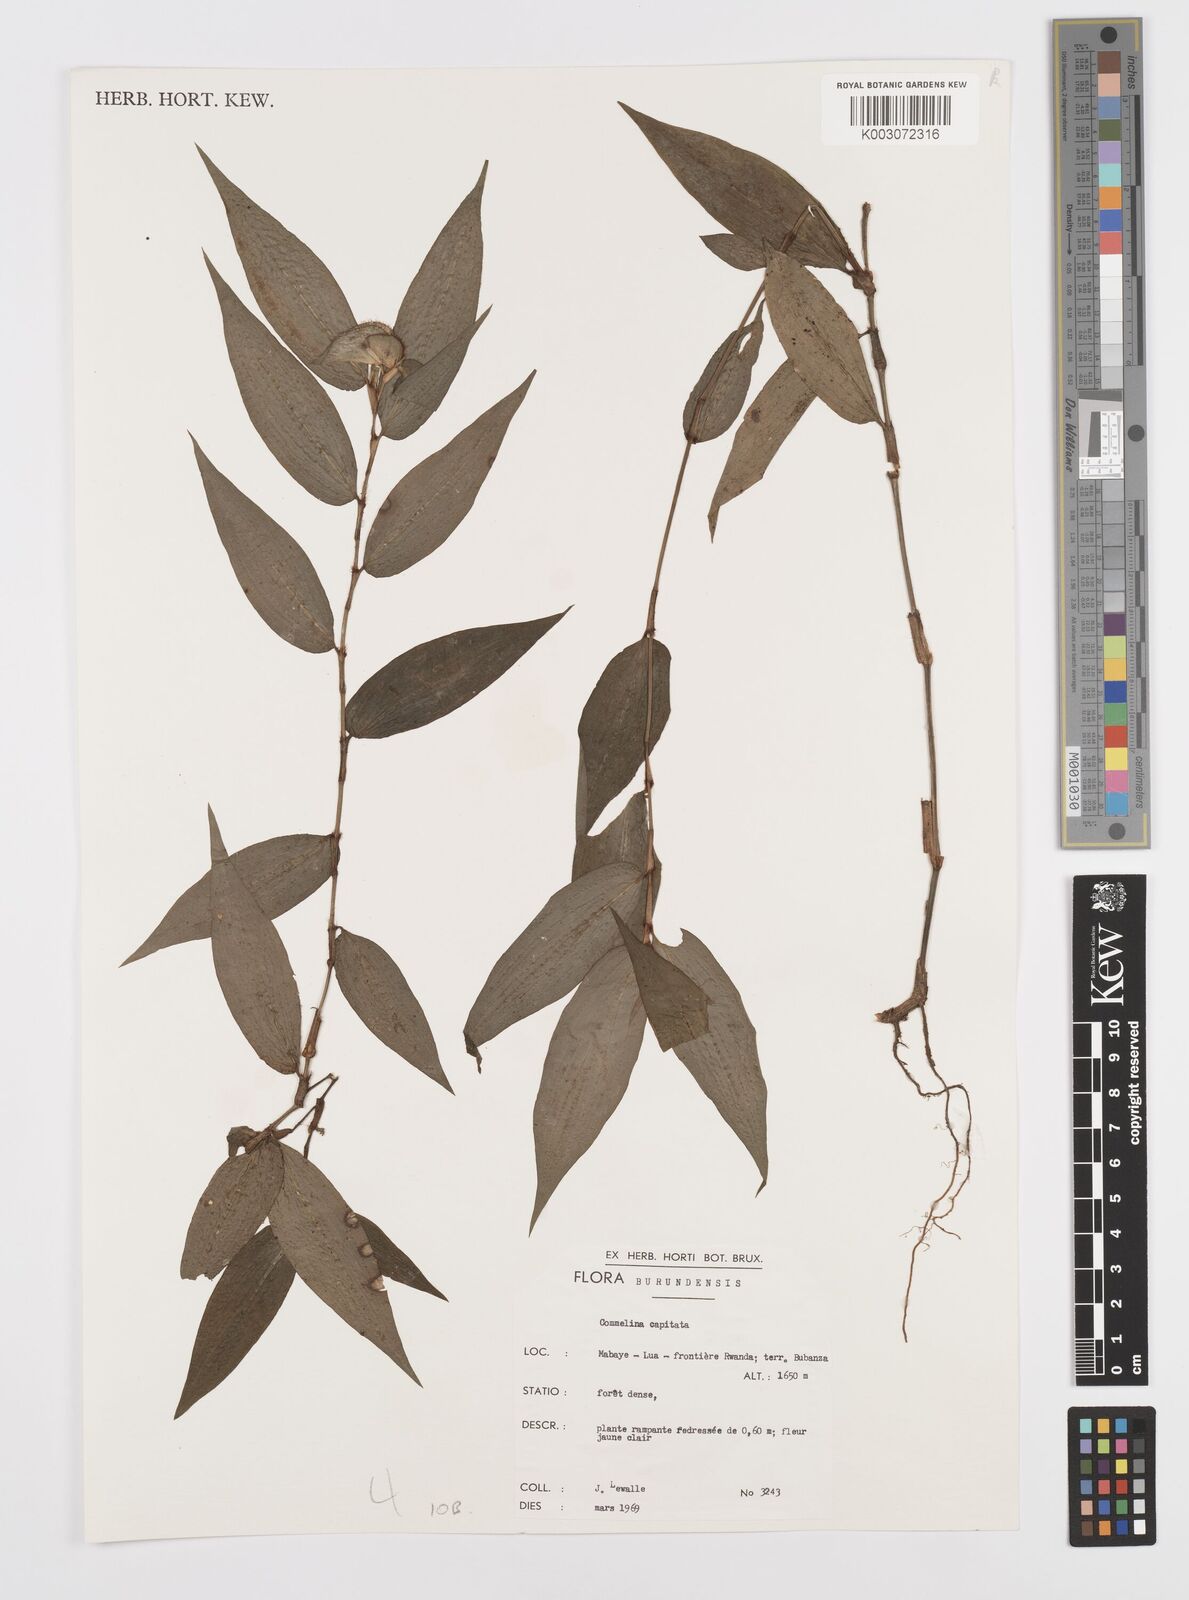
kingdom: Plantae
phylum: Tracheophyta
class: Liliopsida
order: Commelinales
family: Commelinaceae
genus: Commelina
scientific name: Commelina capitata
